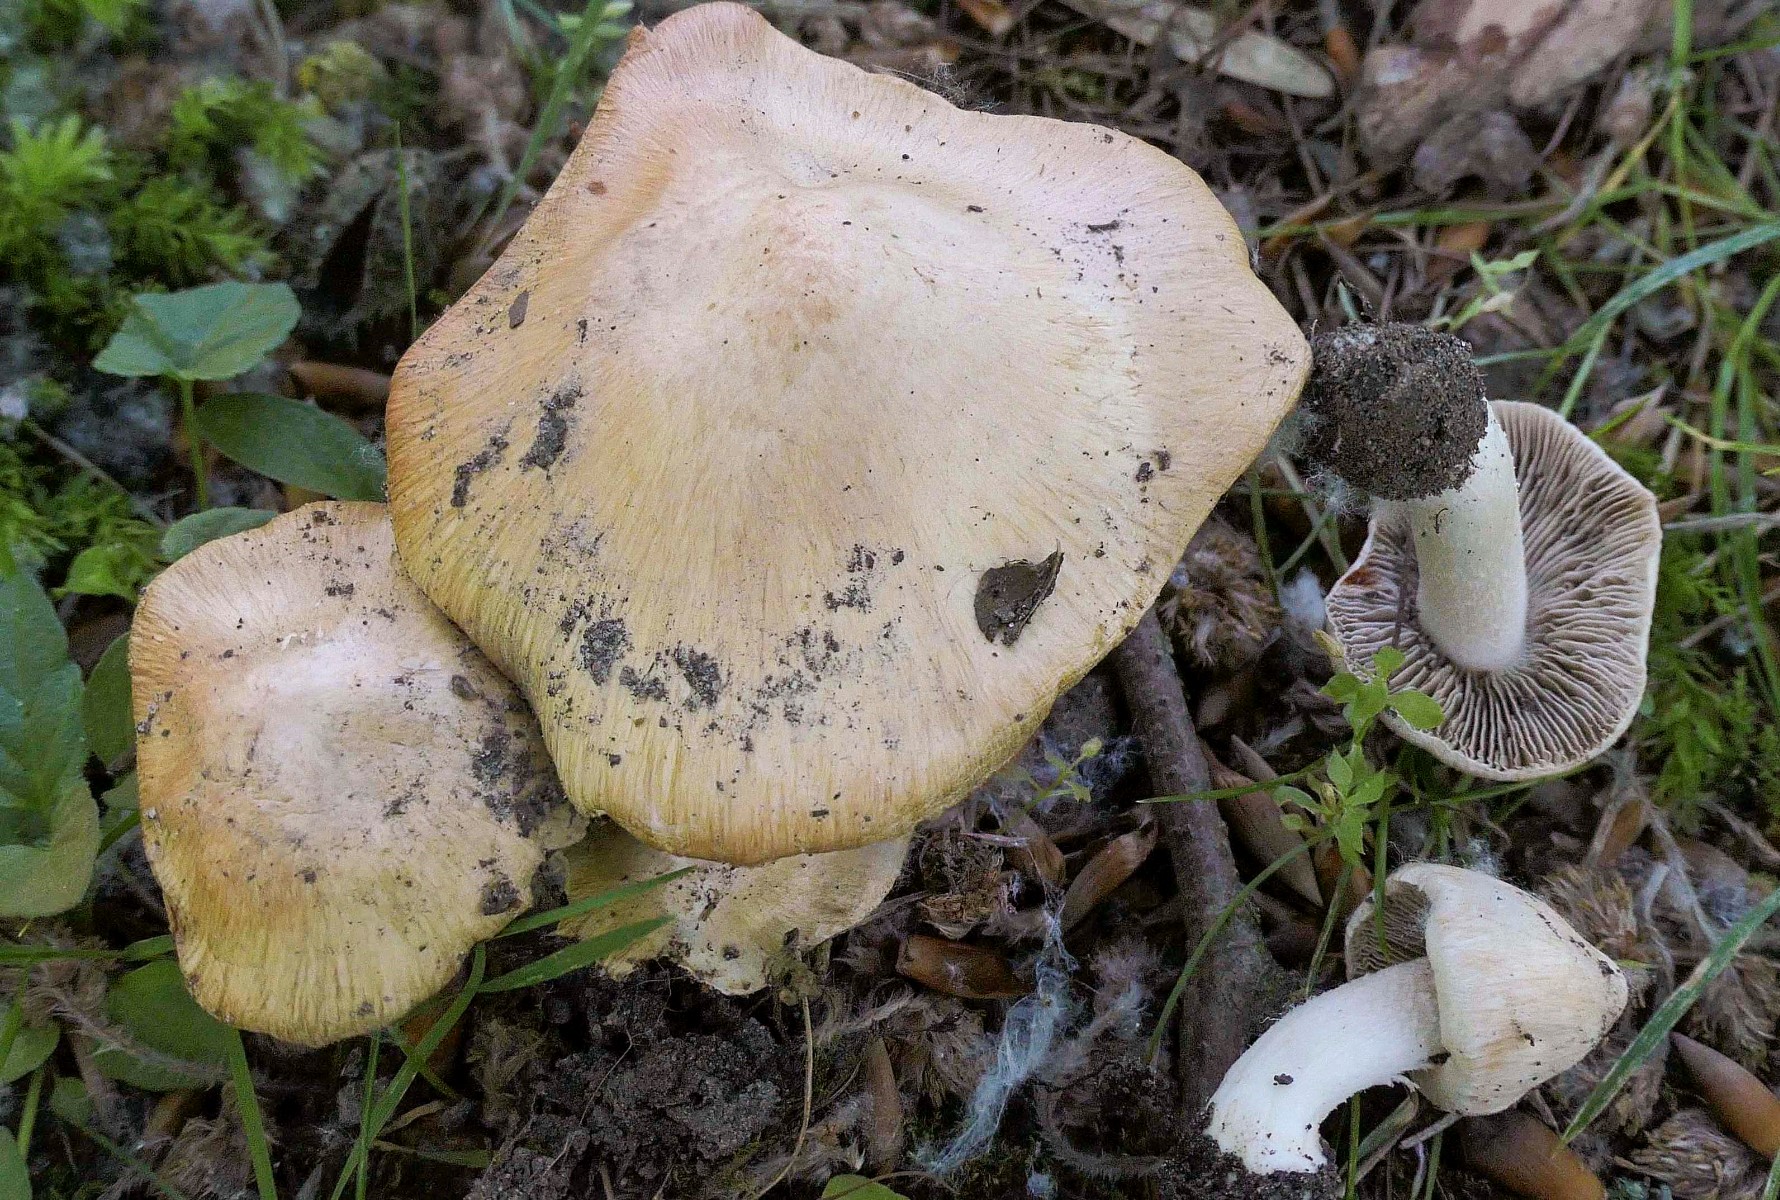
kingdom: Fungi
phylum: Basidiomycota
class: Agaricomycetes
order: Agaricales
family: Inocybaceae
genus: Inosperma
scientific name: Inosperma erubescens
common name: giftig trævlhat
